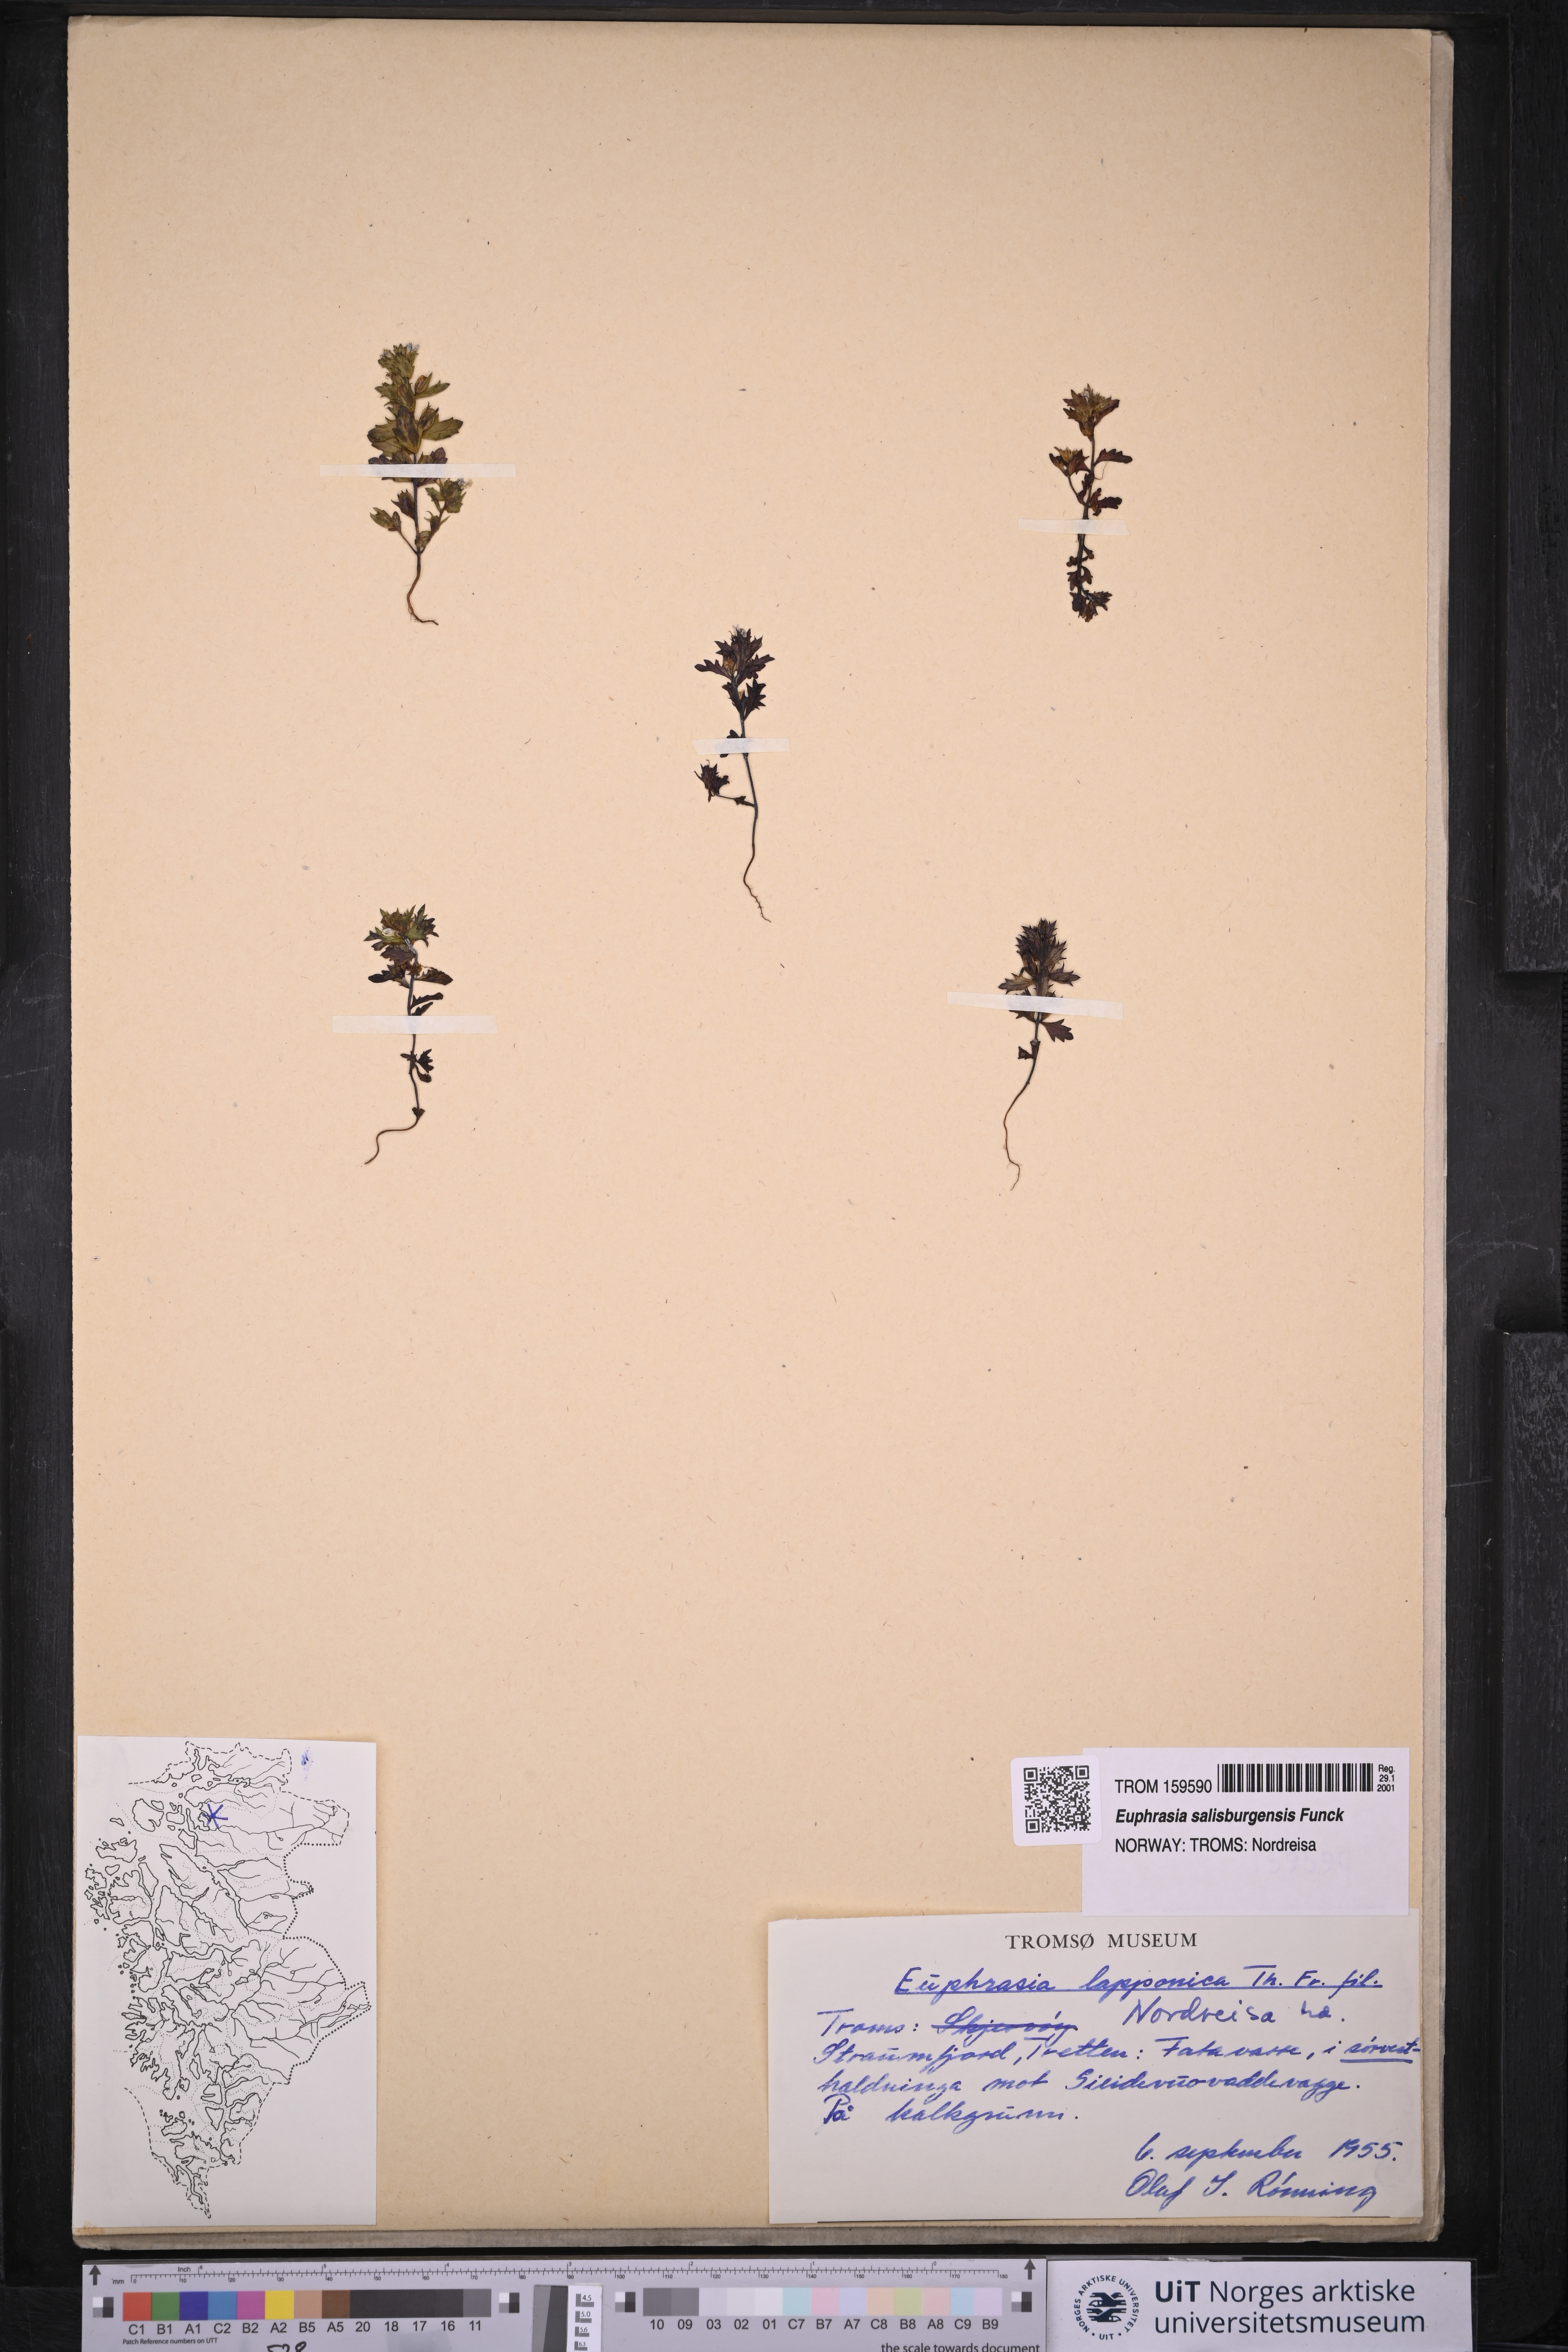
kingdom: Plantae
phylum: Tracheophyta
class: Magnoliopsida
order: Lamiales
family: Orobanchaceae
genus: Euphrasia
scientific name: Euphrasia salisburgensis
